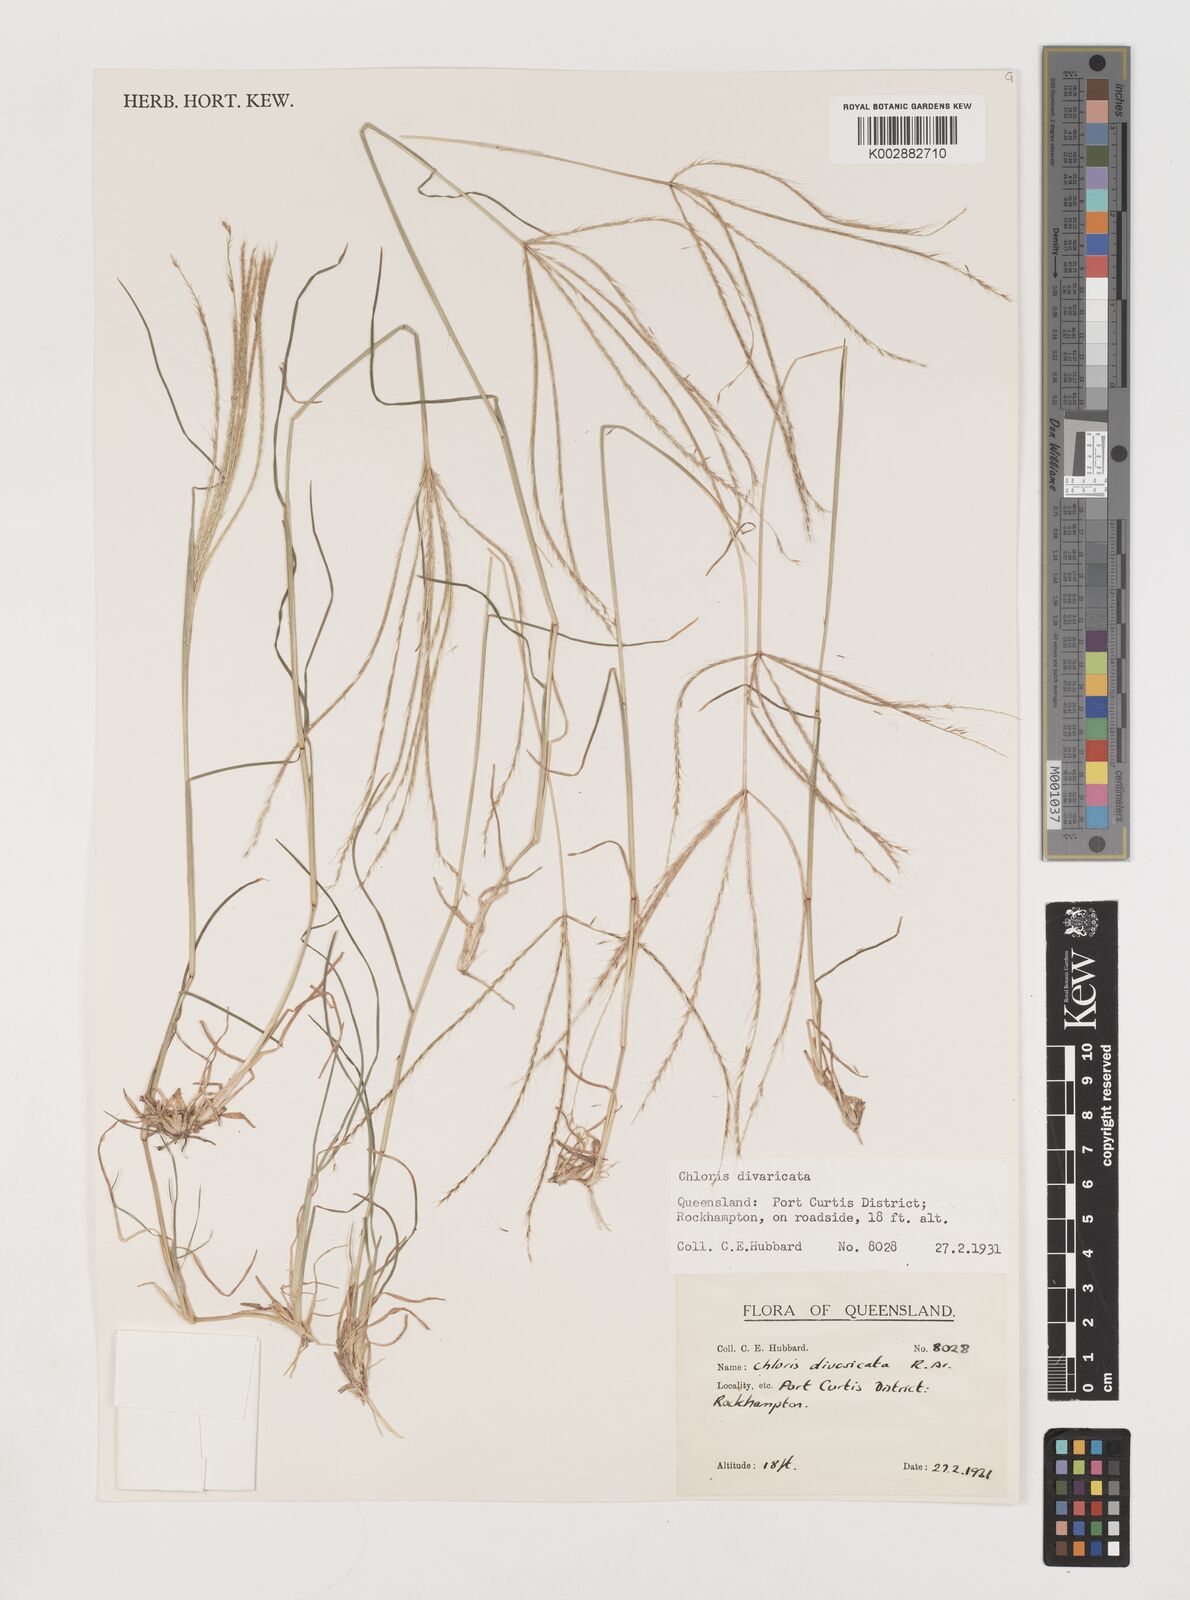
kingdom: Plantae
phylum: Tracheophyta
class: Liliopsida
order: Poales
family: Poaceae
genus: Chloris
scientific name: Chloris divaricata
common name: Spreading windmill grass
